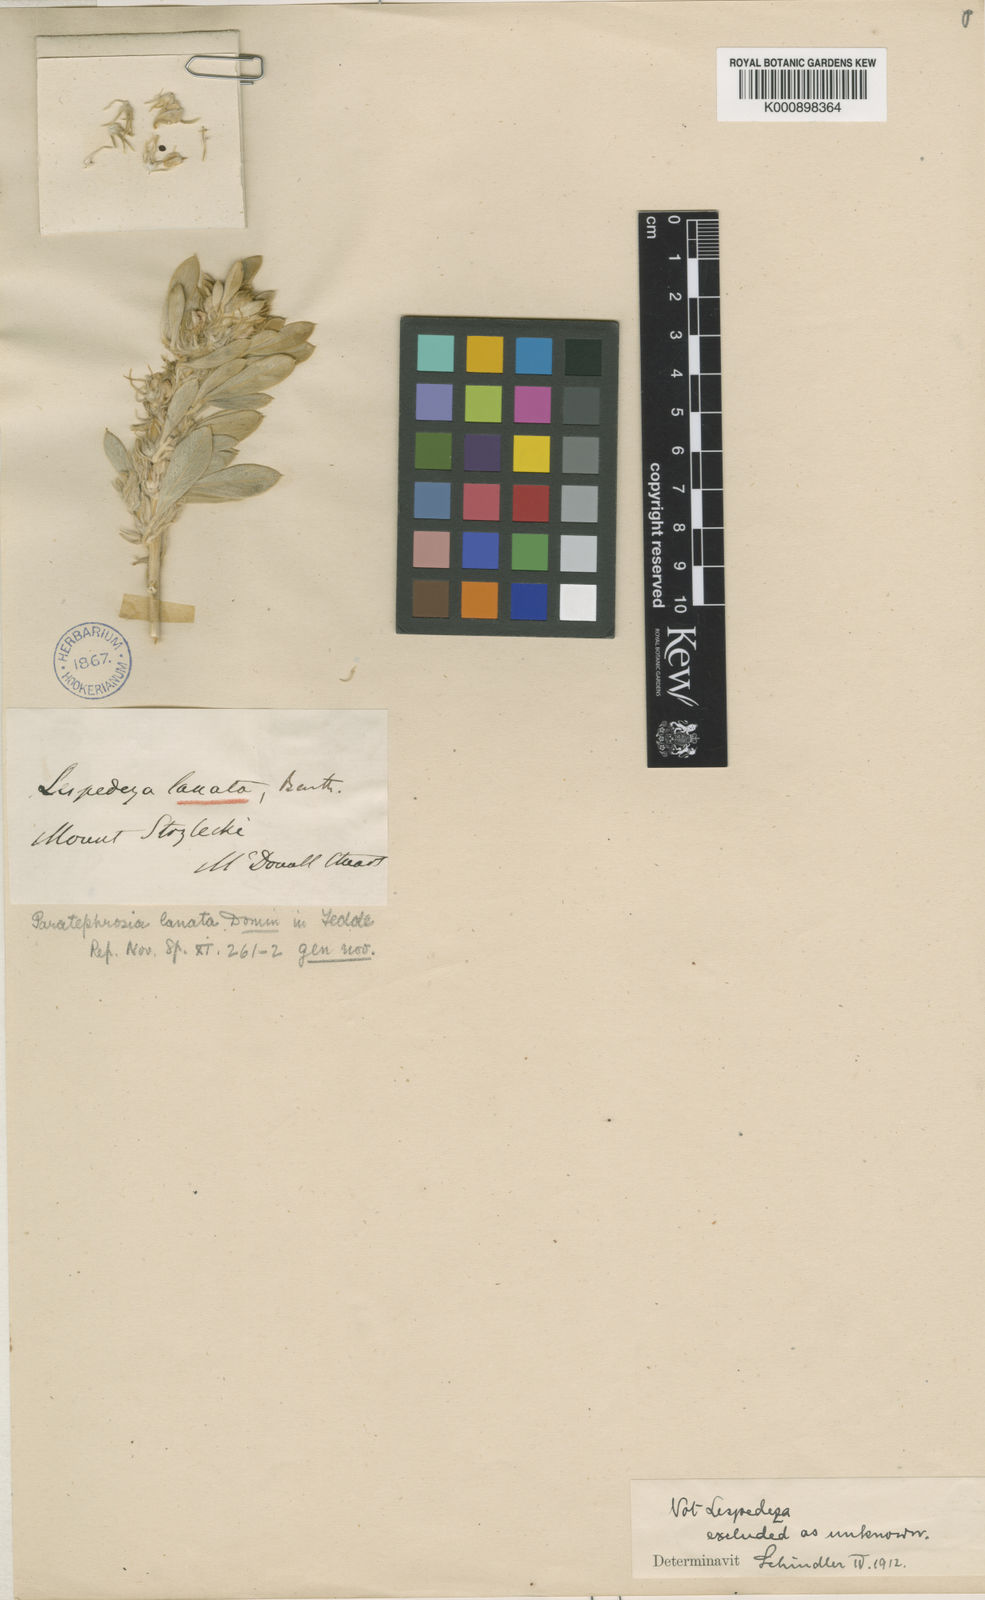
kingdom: Plantae
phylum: Tracheophyta
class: Magnoliopsida
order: Fabales
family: Fabaceae
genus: Tephrosia
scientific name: Tephrosia lasiochlaena
